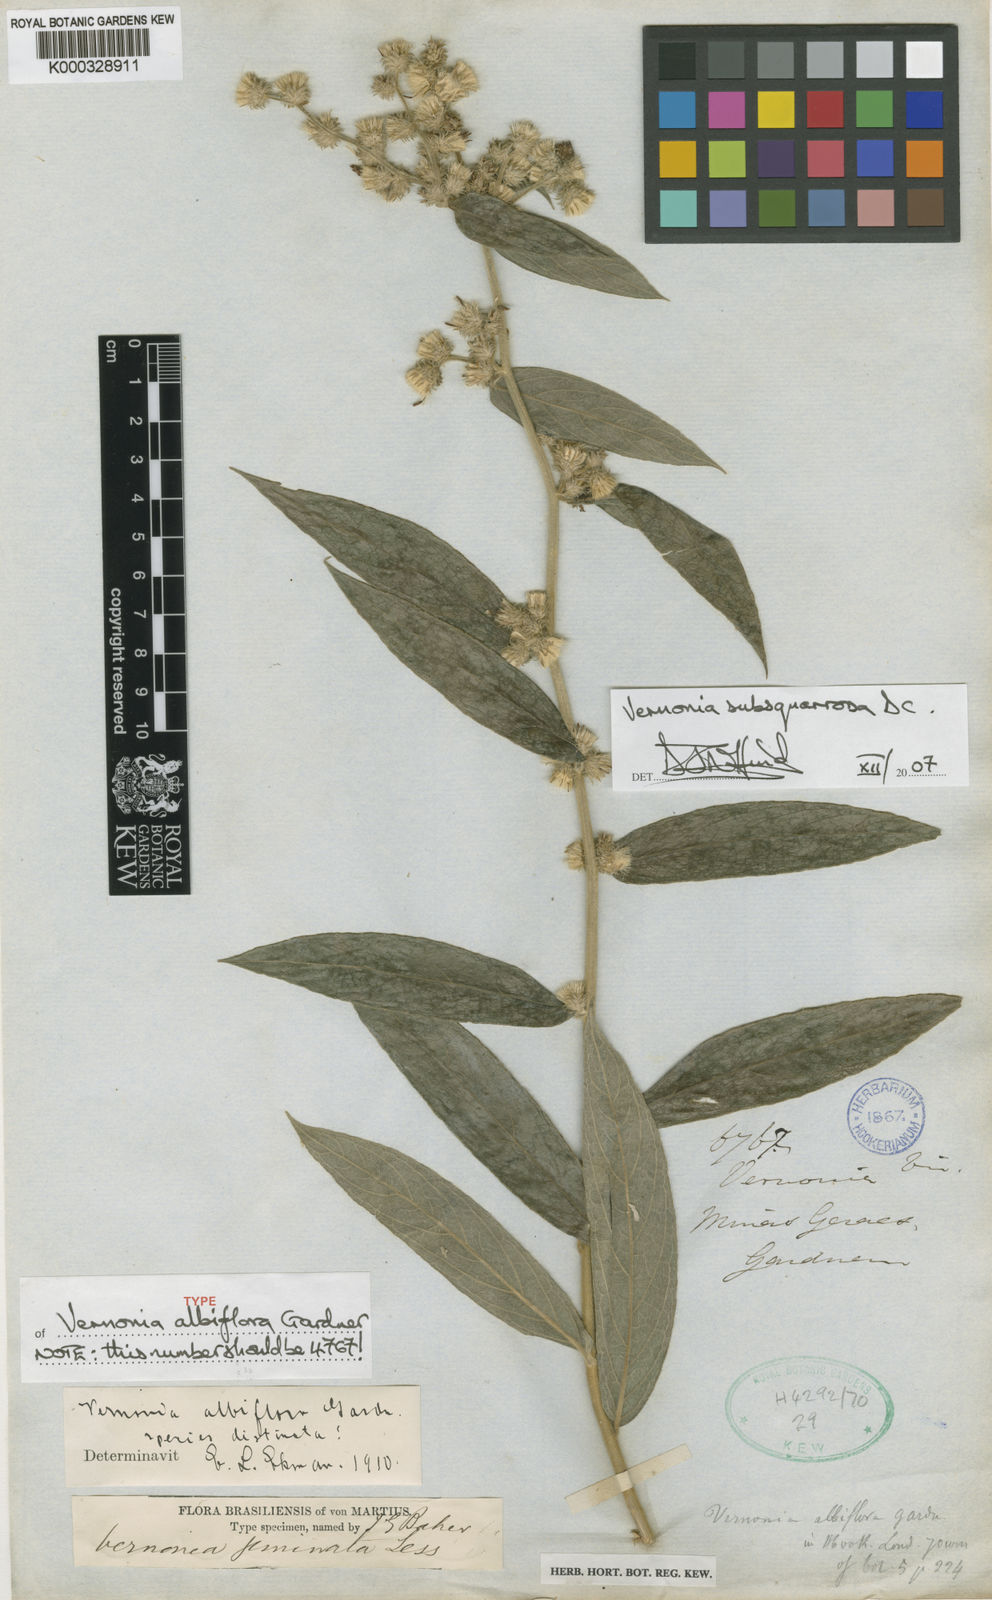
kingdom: Plantae
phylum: Tracheophyta
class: Magnoliopsida
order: Asterales
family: Asteraceae
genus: Vernonia
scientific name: Vernonia
